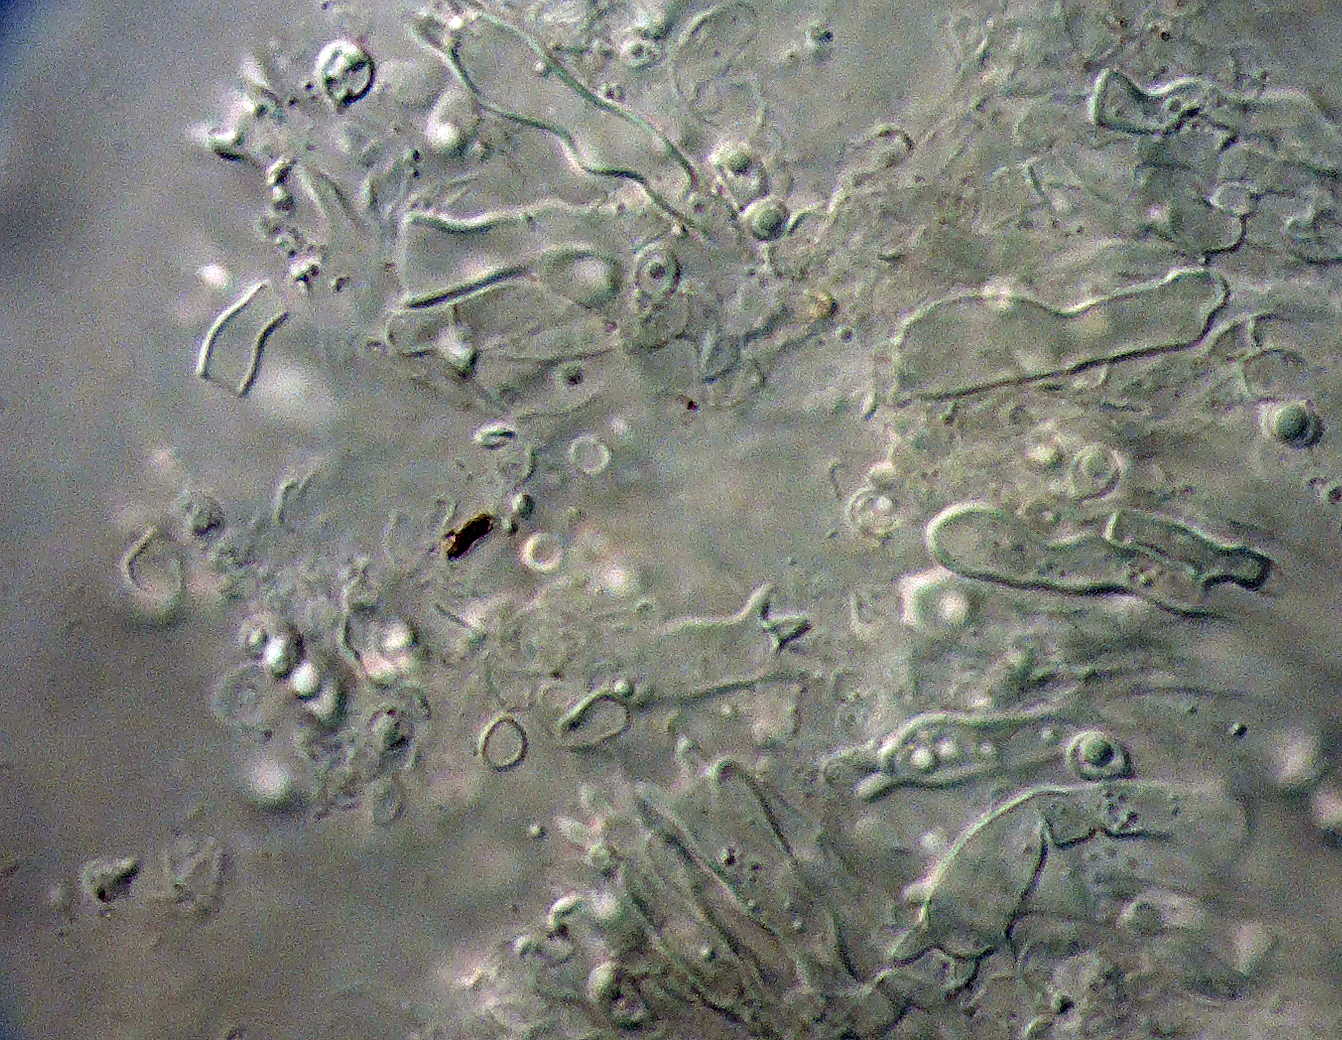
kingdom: Fungi
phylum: Basidiomycota
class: Agaricomycetes
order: Agaricales
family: Clavariaceae
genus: Ramariopsis
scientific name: Ramariopsis
